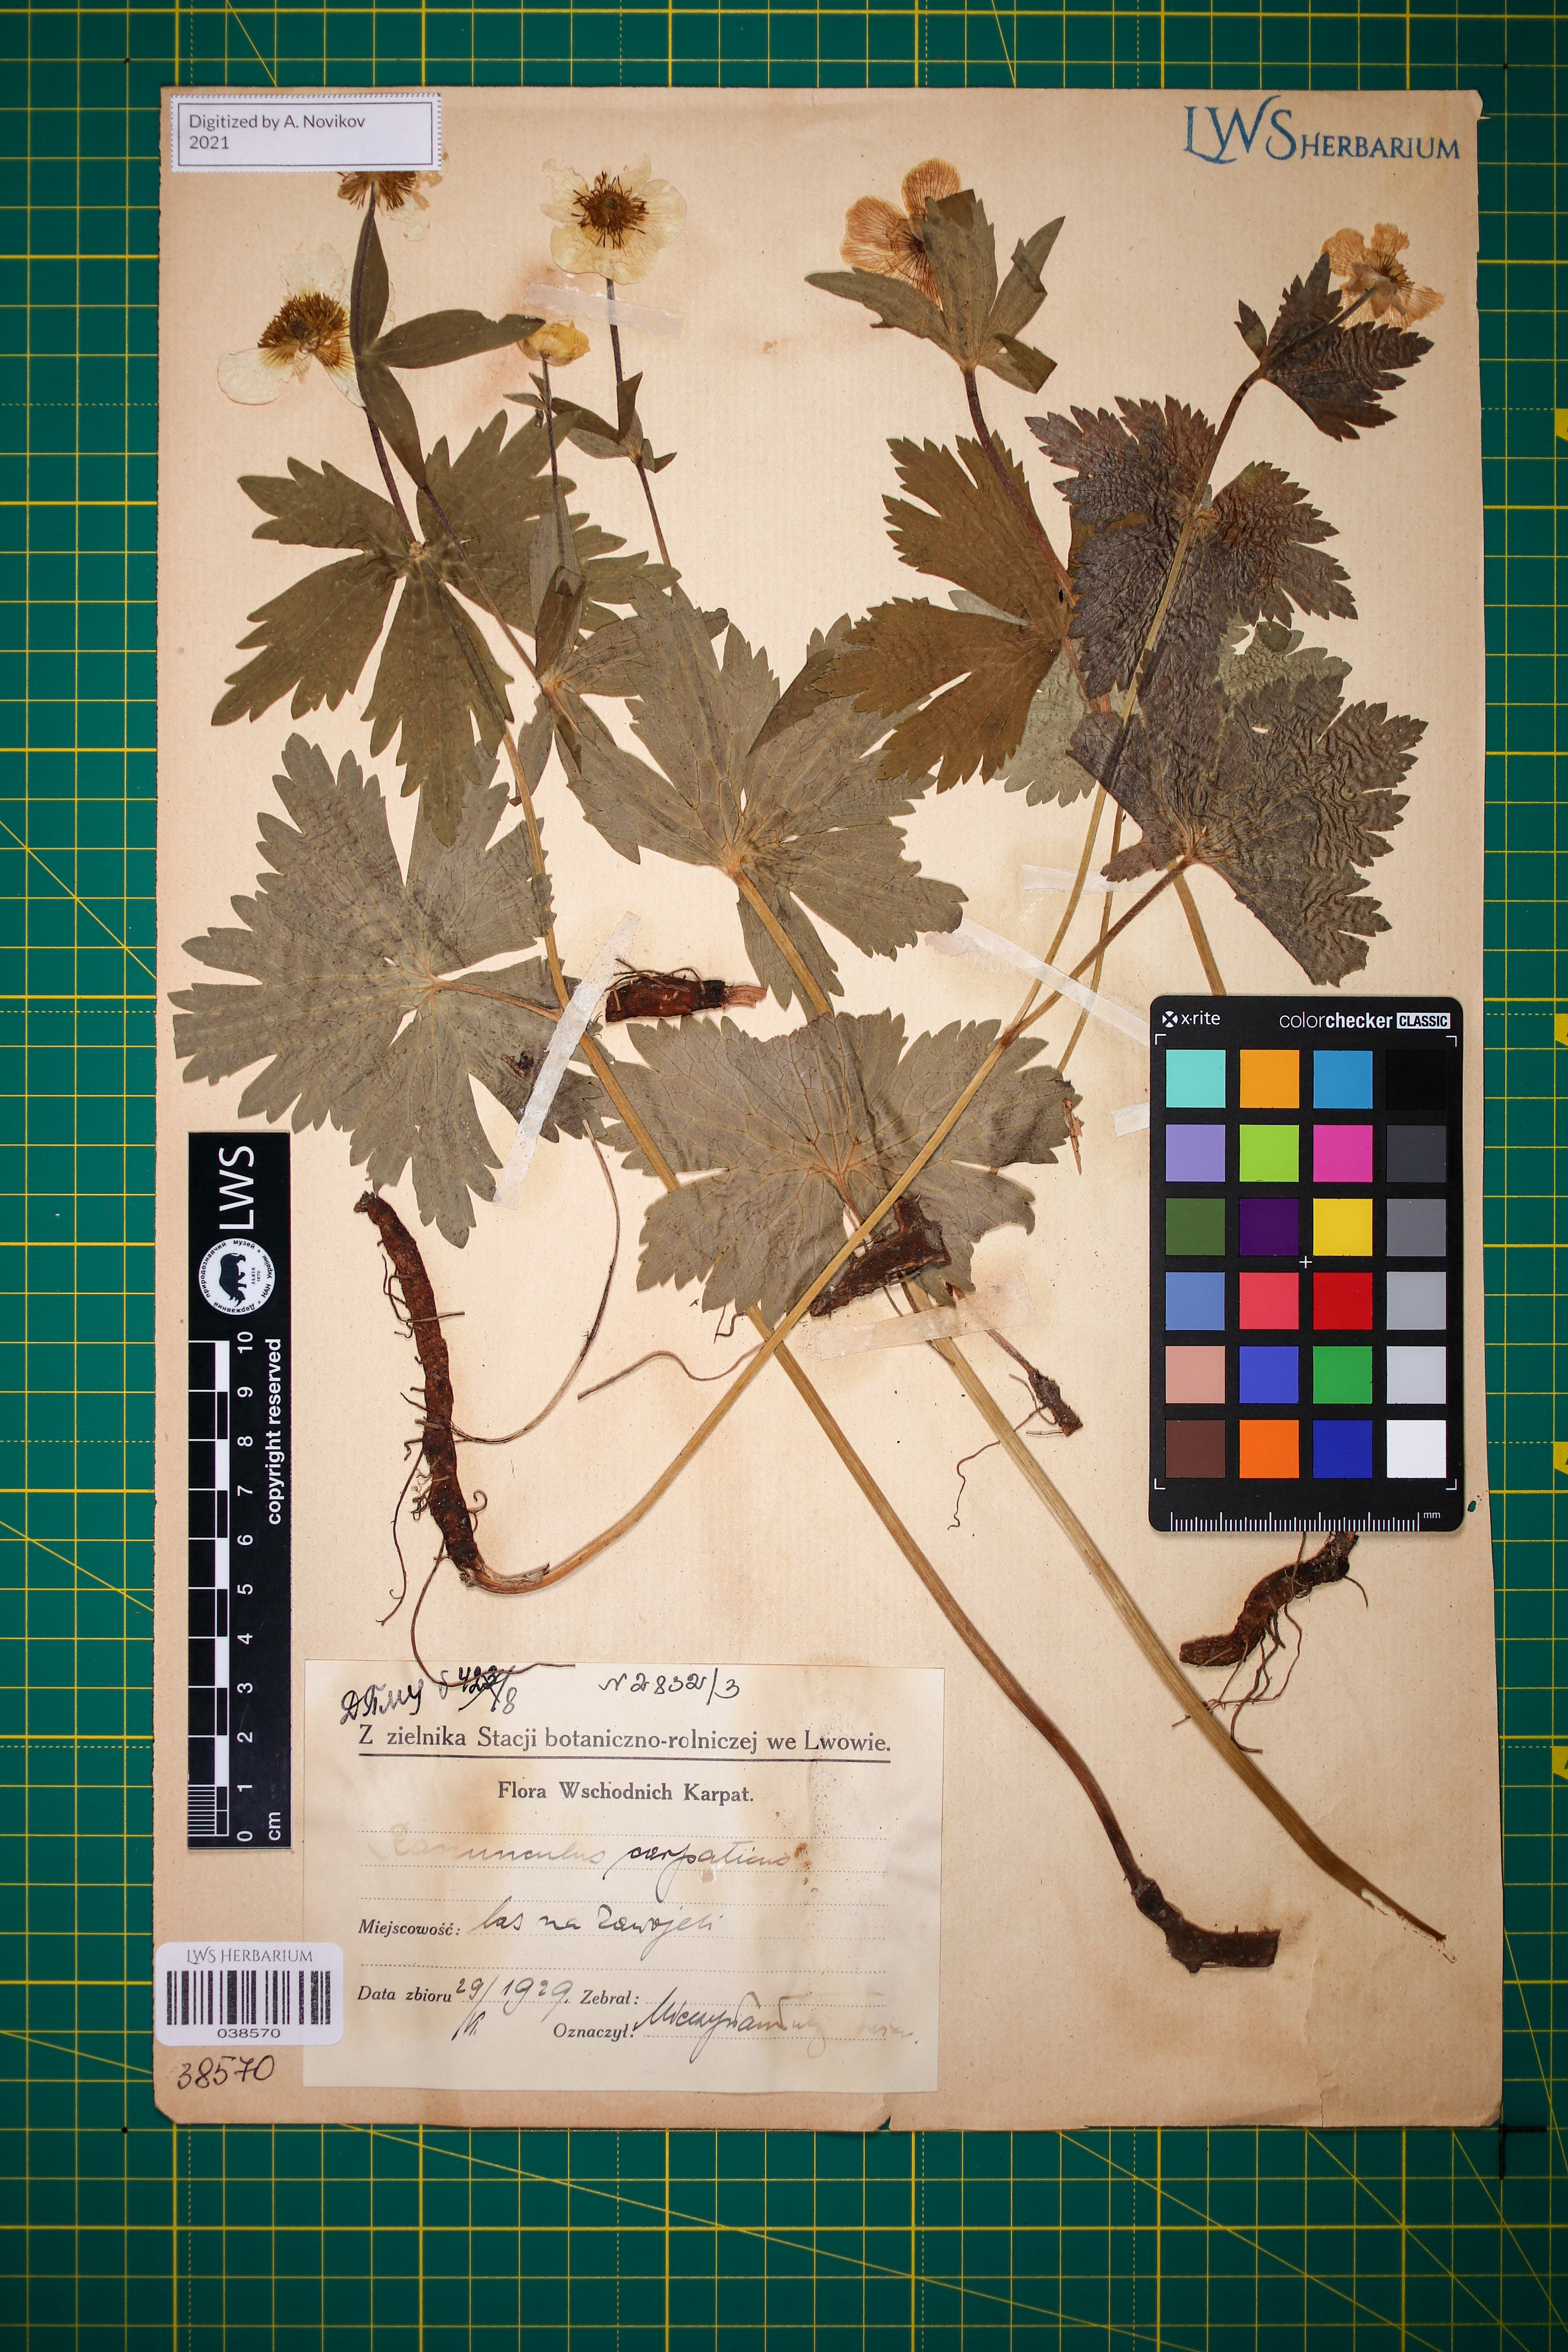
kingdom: Plantae
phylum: Tracheophyta
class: Magnoliopsida
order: Ranunculales
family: Ranunculaceae
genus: Ranunculus
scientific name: Ranunculus carpaticus
